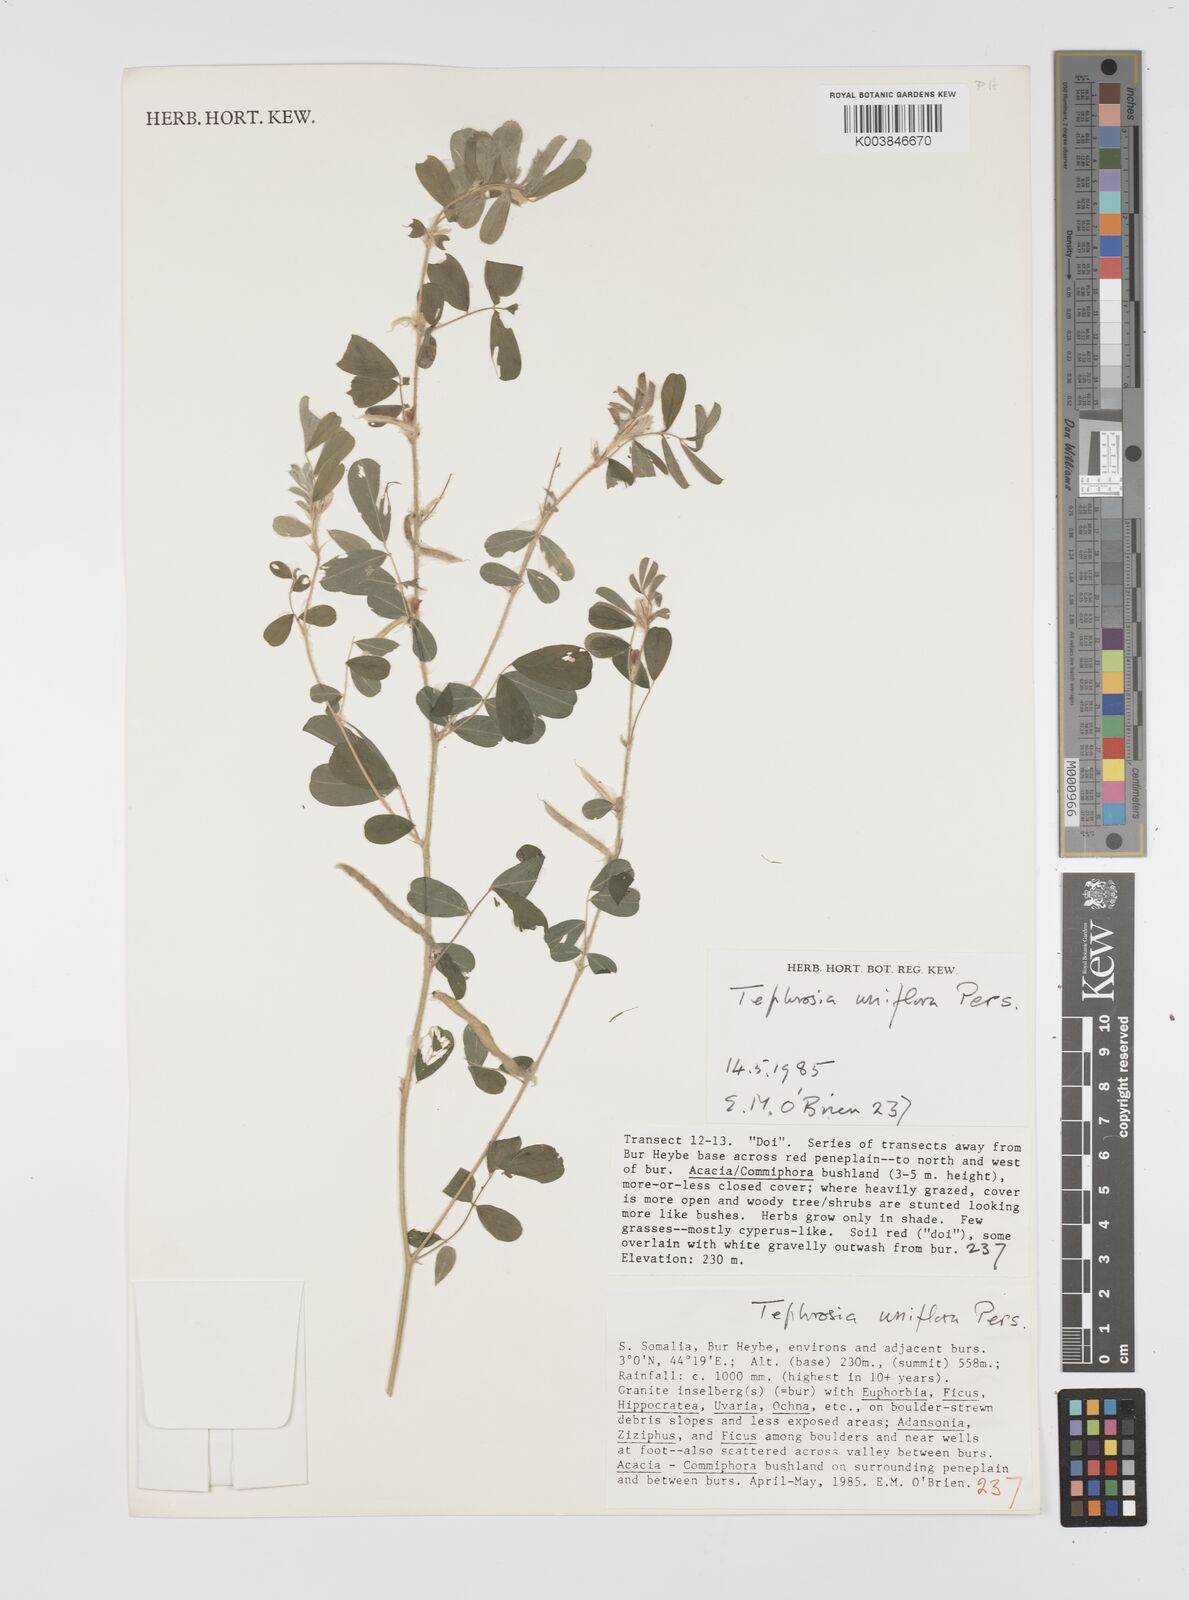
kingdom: Plantae
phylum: Tracheophyta
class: Magnoliopsida
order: Fabales
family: Fabaceae
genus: Tephrosia
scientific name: Tephrosia uniflora
